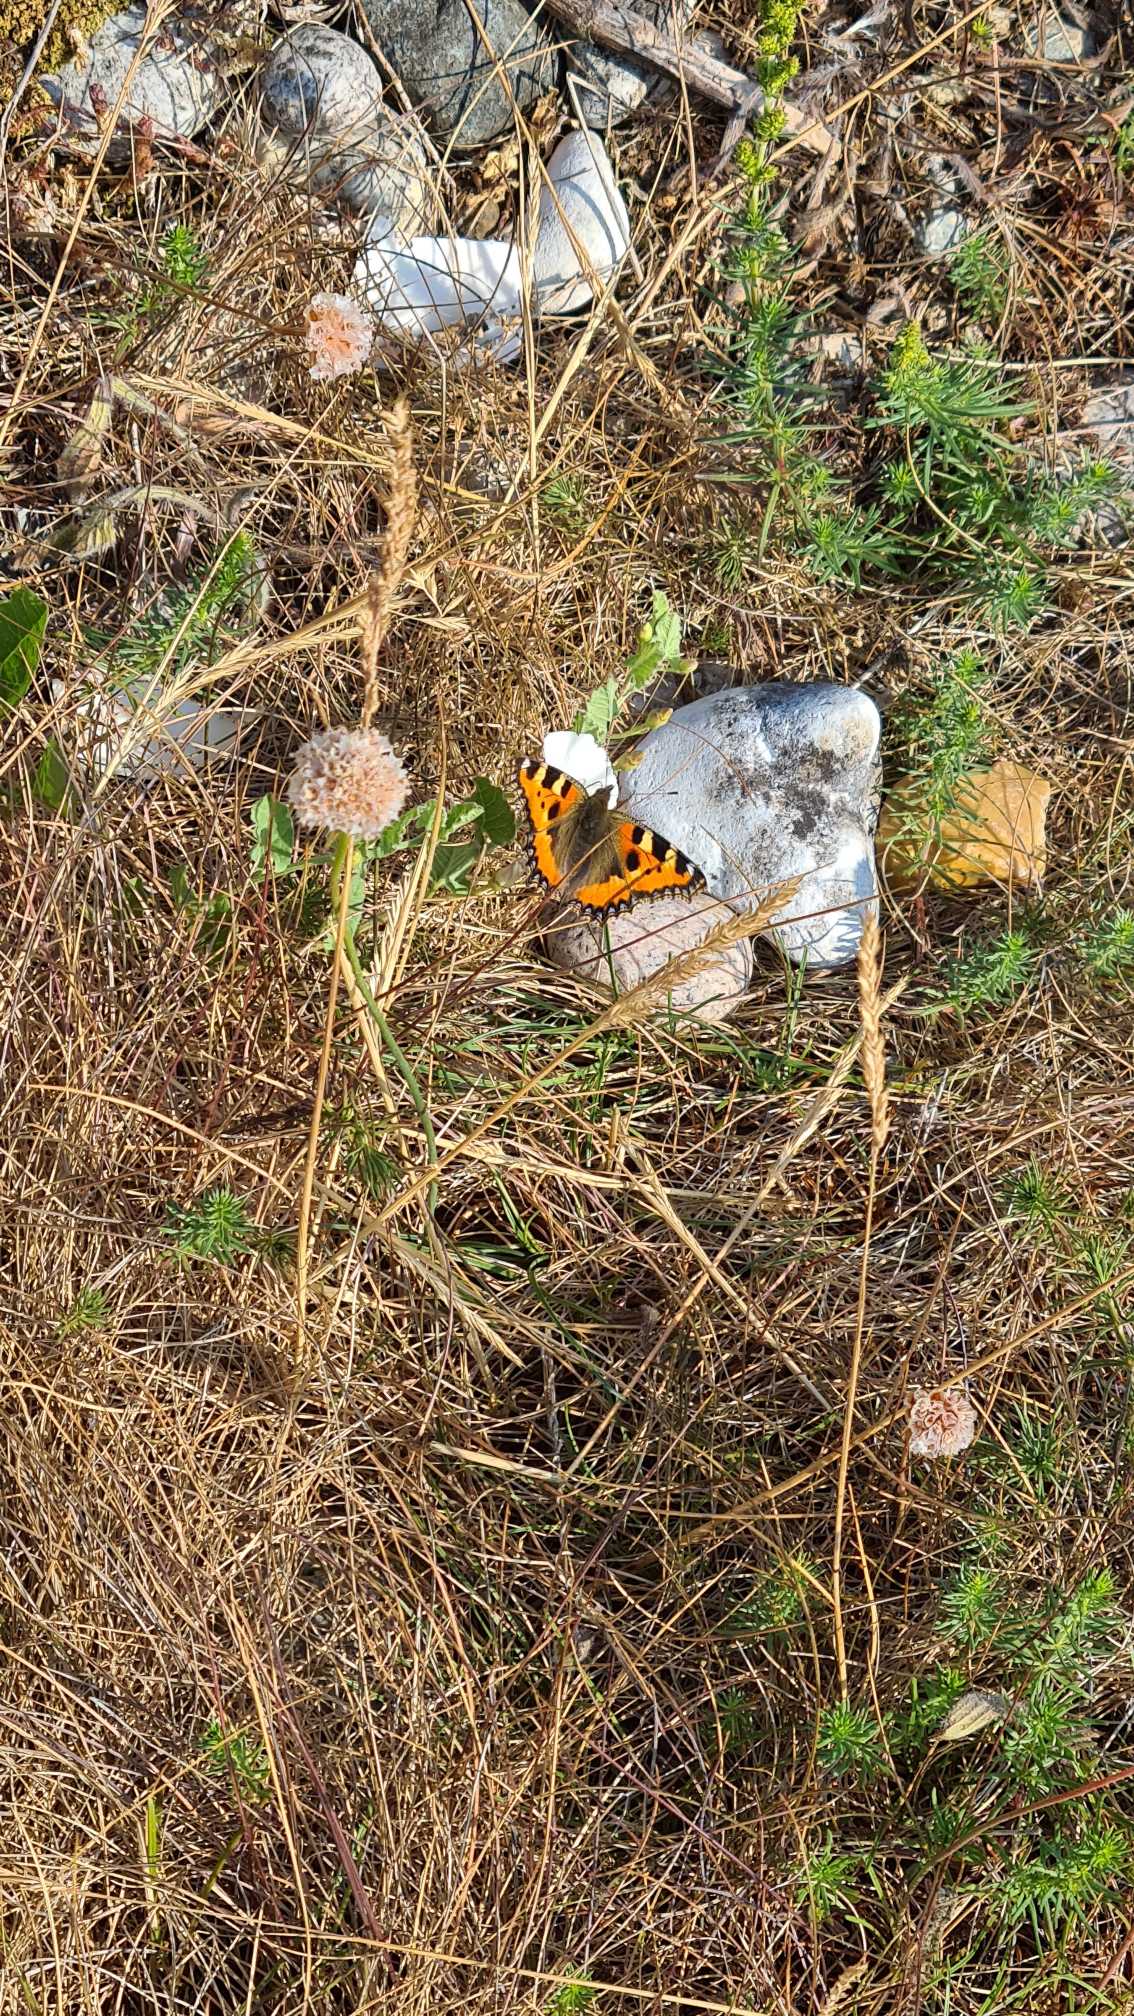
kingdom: Animalia
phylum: Arthropoda
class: Insecta
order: Lepidoptera
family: Nymphalidae
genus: Aglais
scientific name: Aglais urticae
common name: Nældens takvinge
